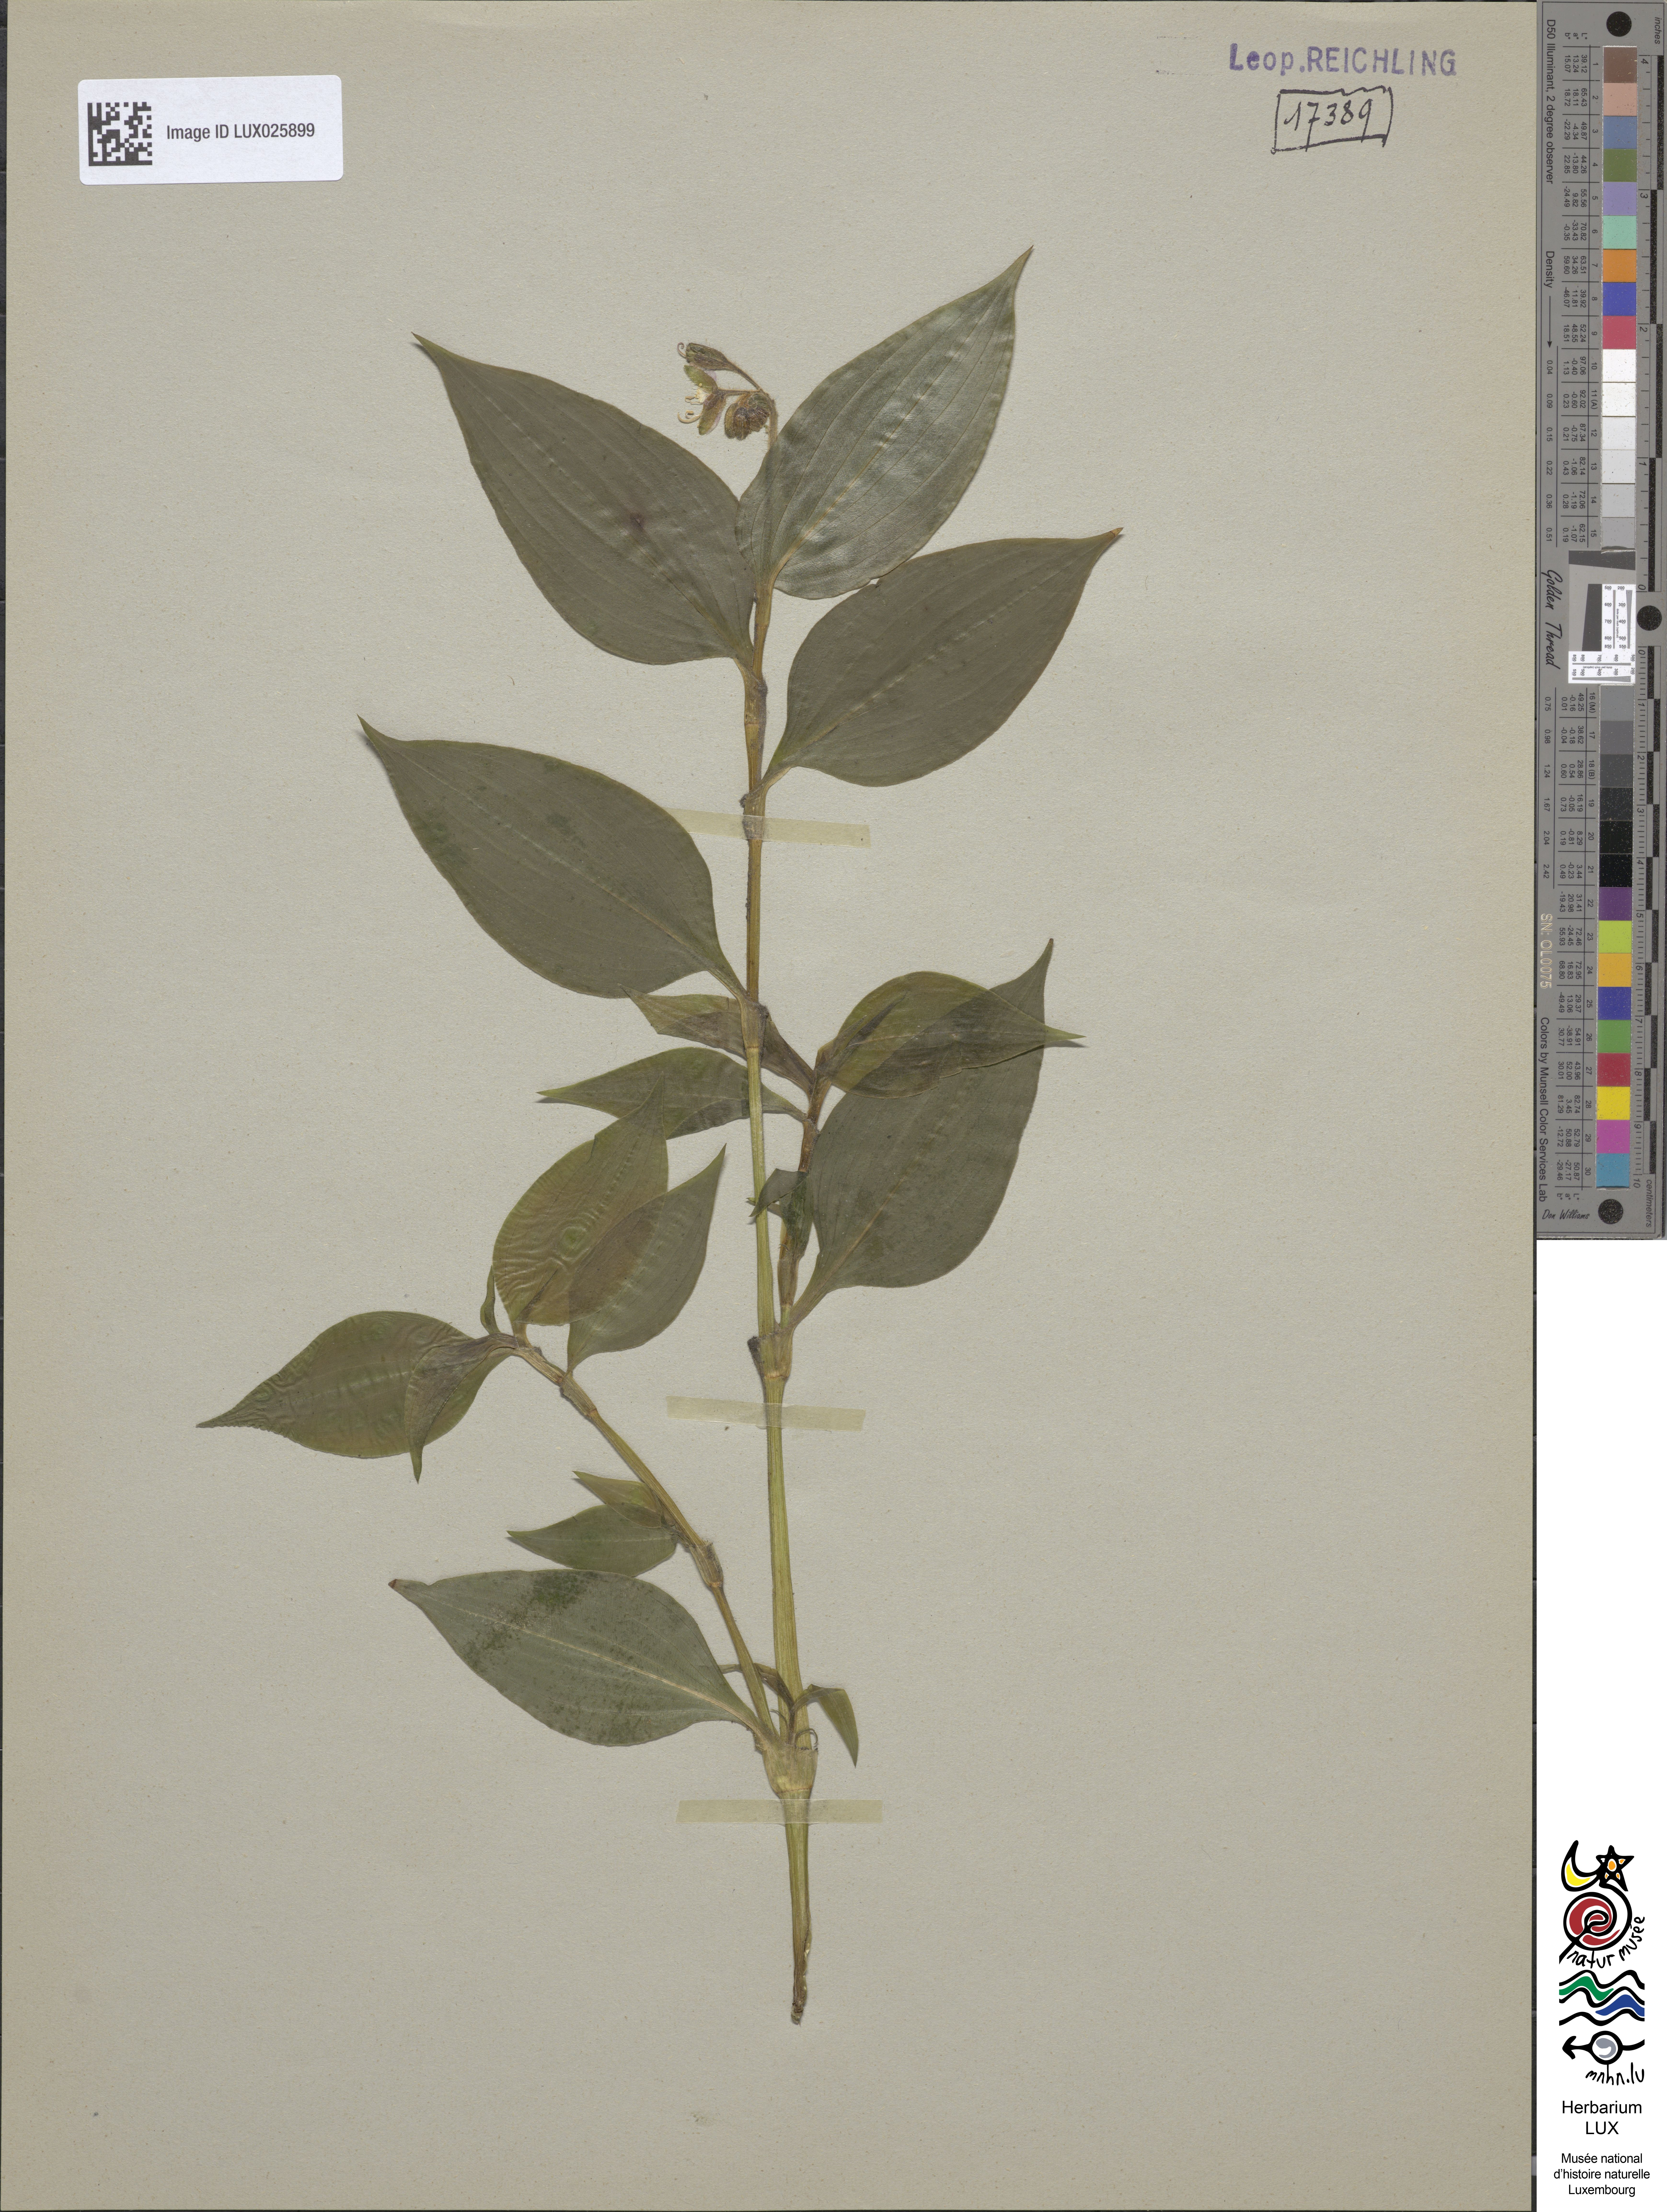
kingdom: Plantae
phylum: Tracheophyta
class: Liliopsida
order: Commelinales
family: Commelinaceae
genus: Tinantia
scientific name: Tinantia erecta
